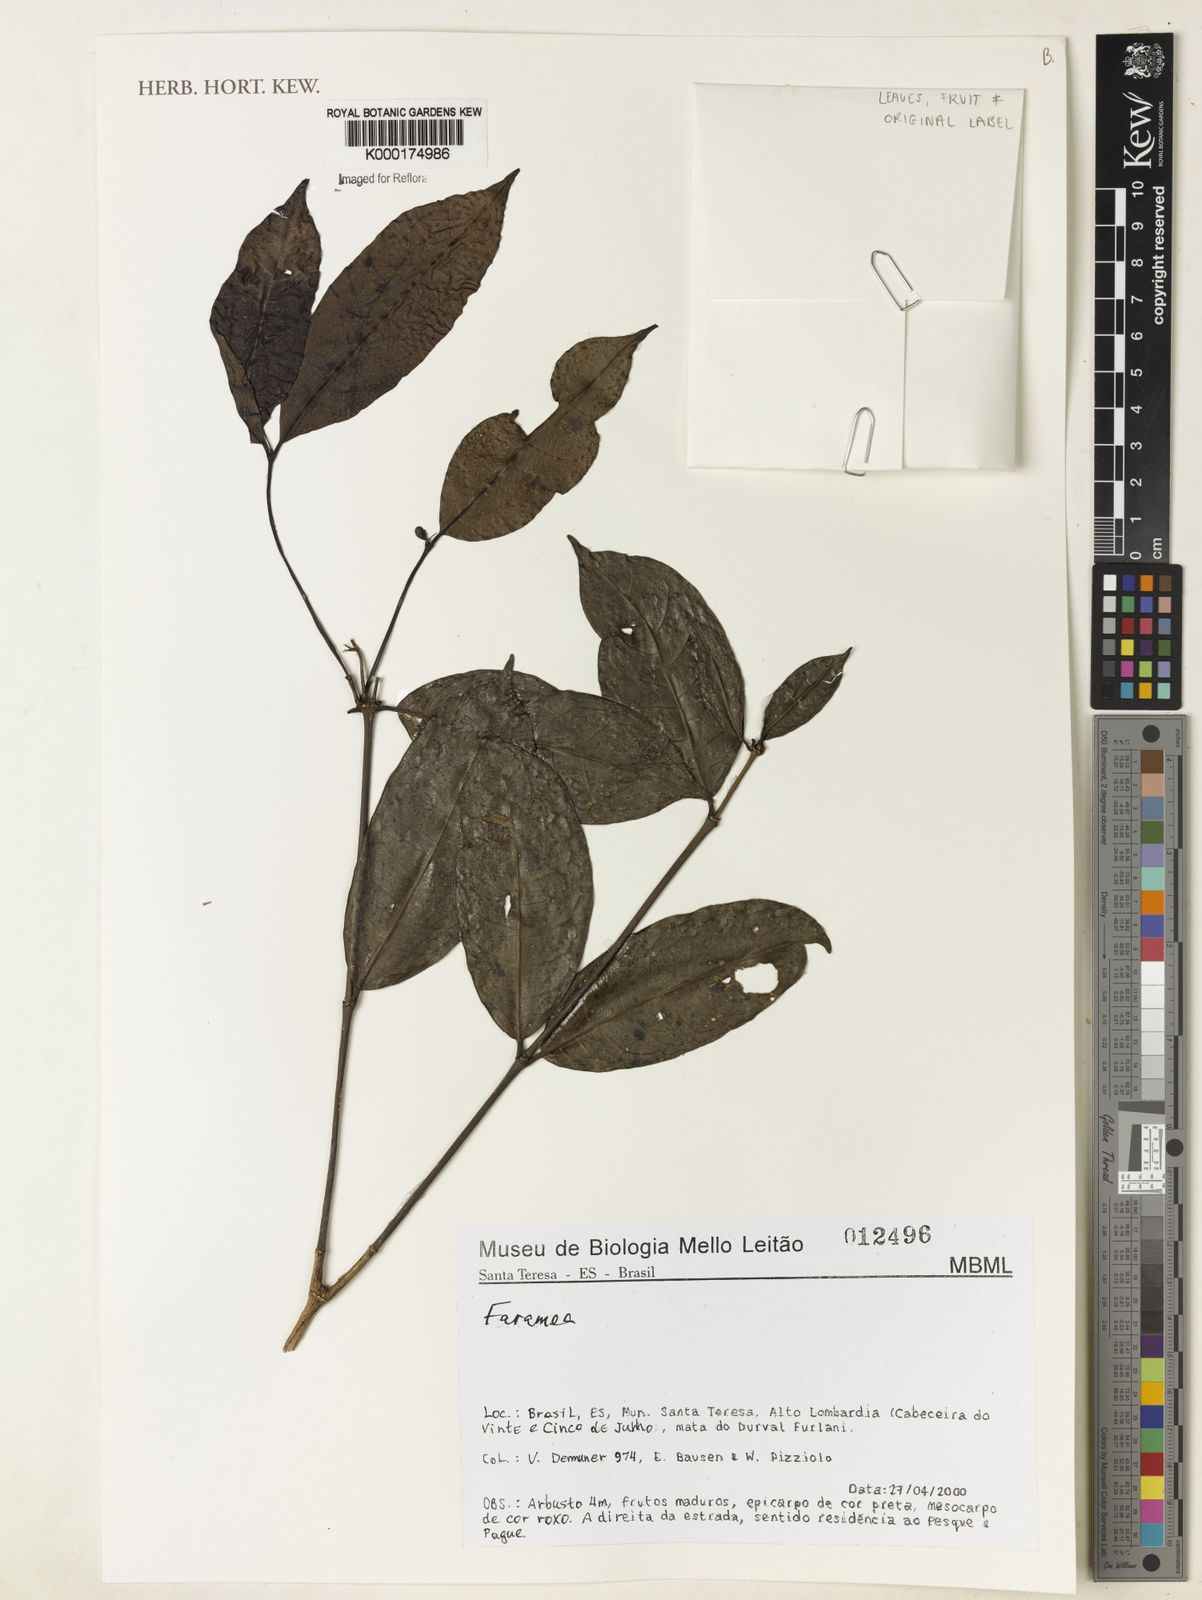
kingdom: Plantae
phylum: Tracheophyta
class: Magnoliopsida
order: Gentianales
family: Rubiaceae
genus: Faramea
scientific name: Faramea
